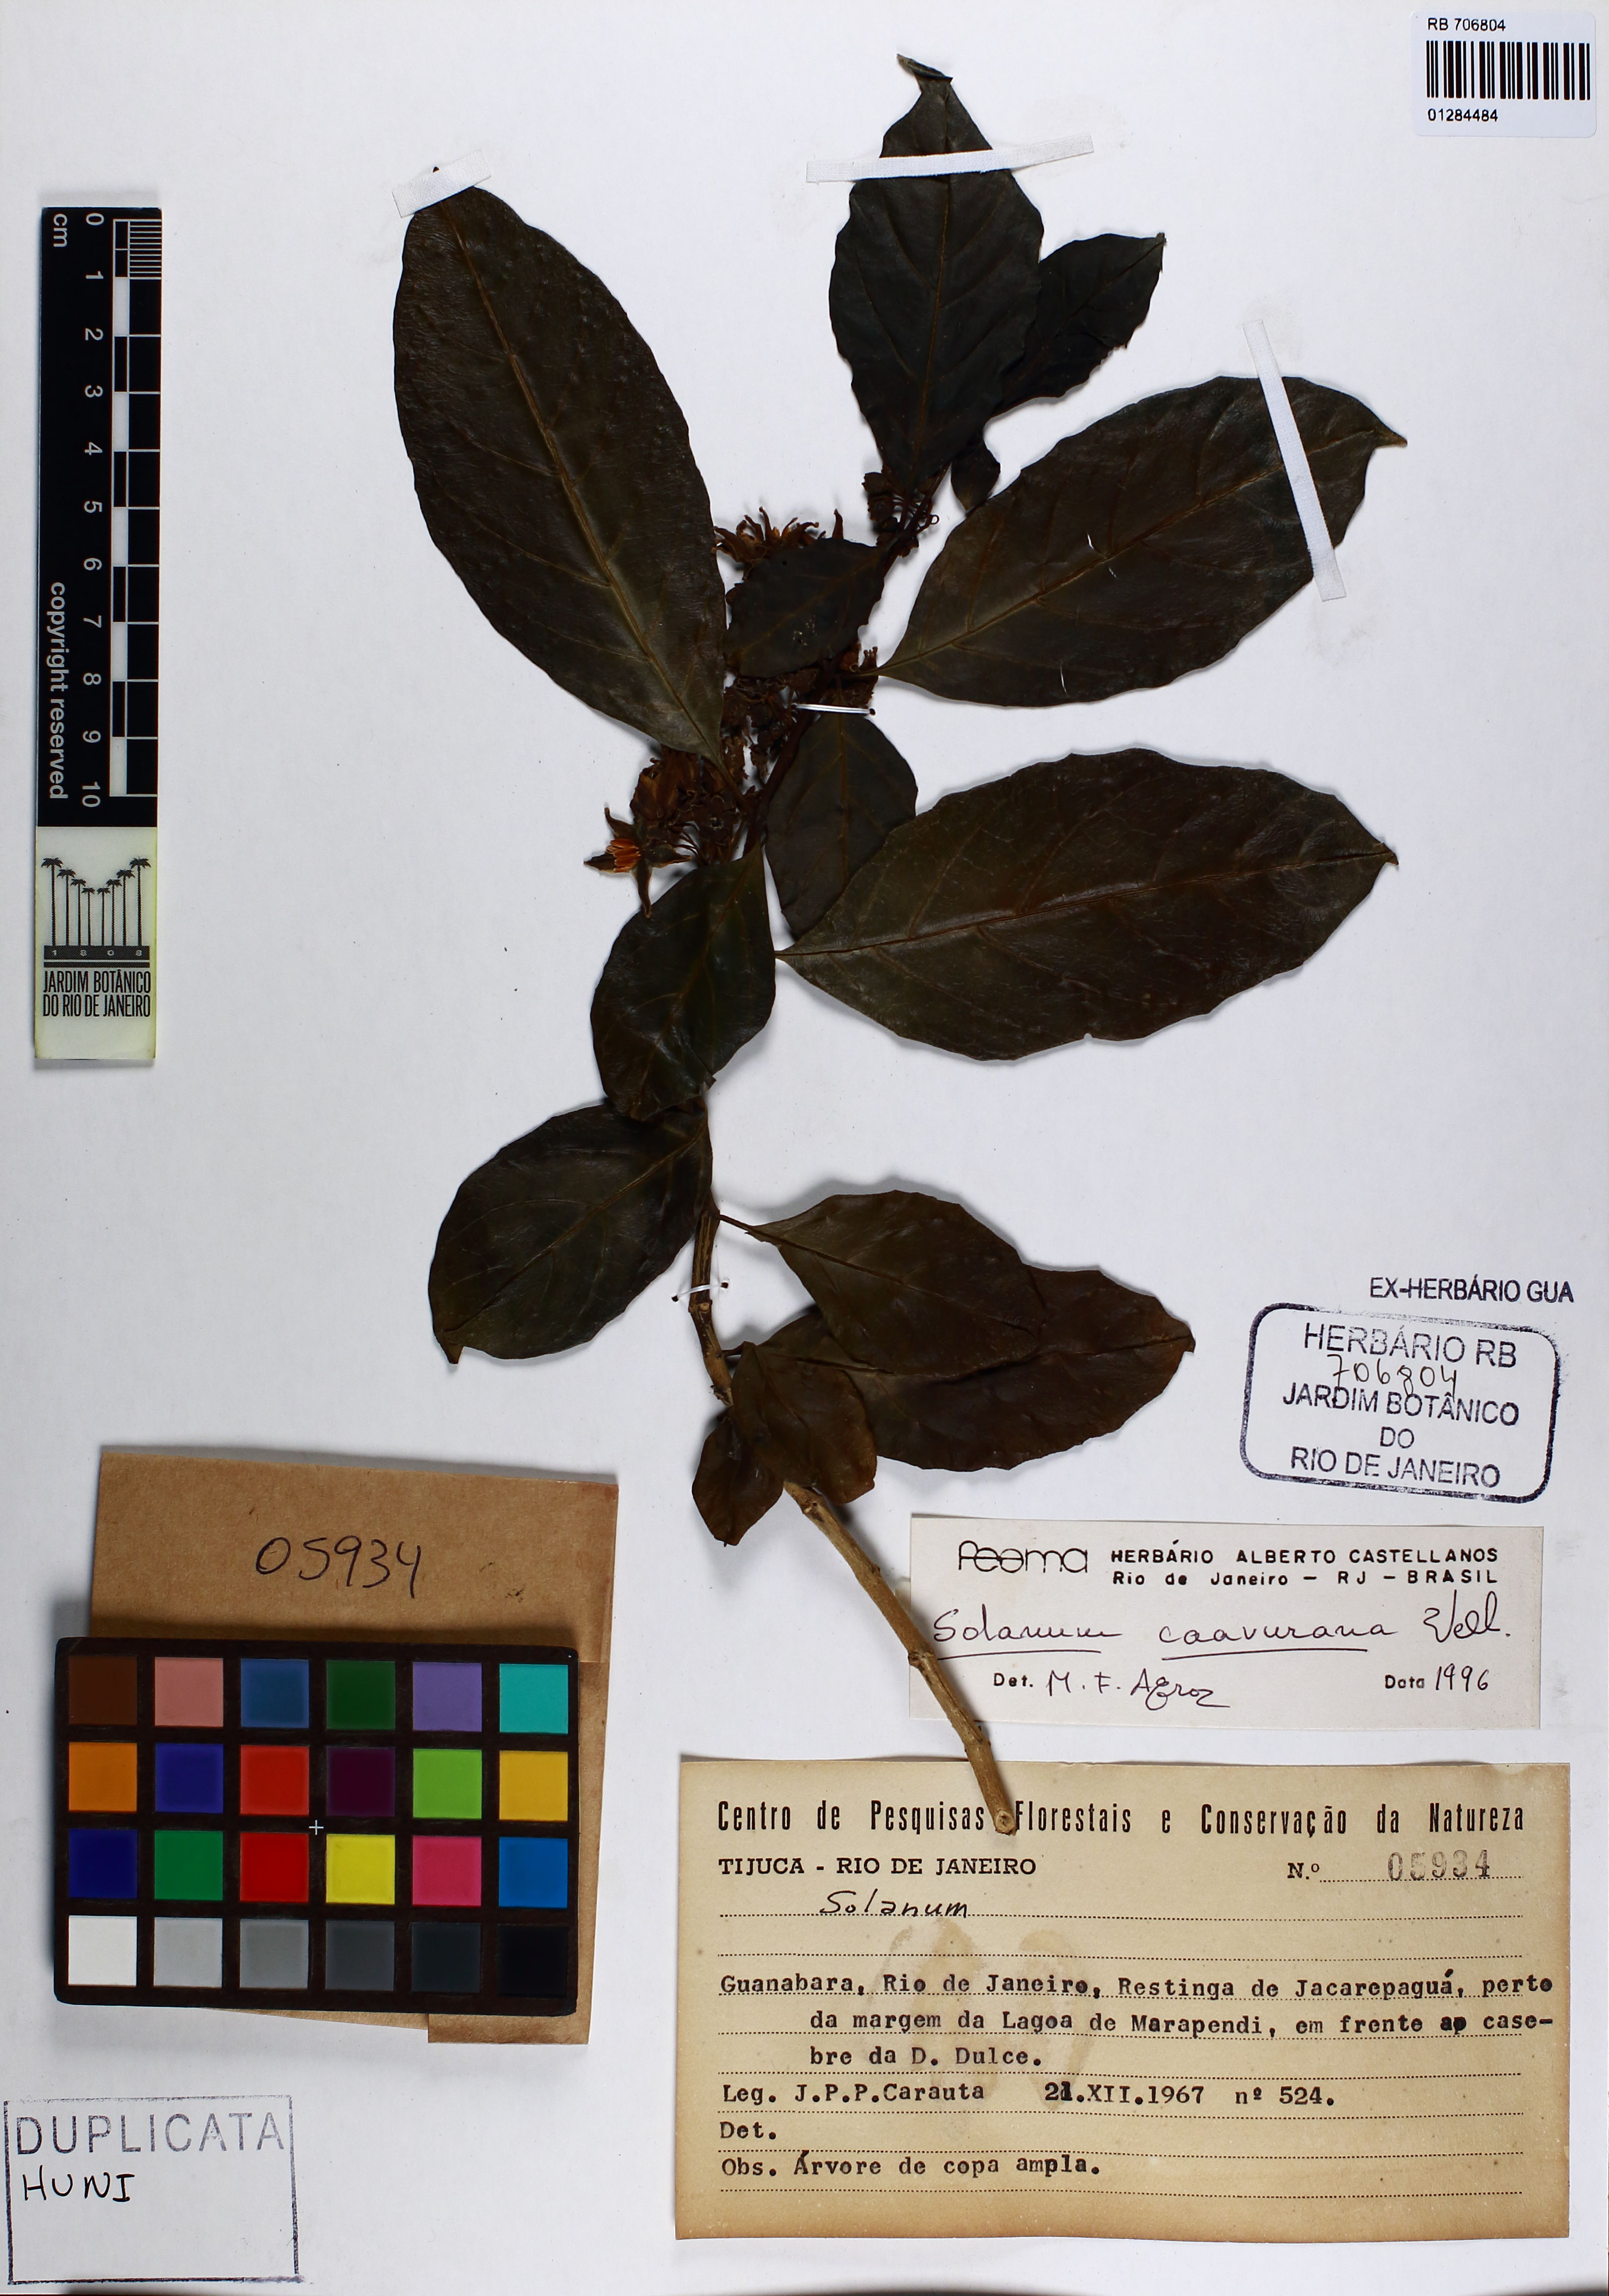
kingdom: Plantae
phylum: Tracheophyta
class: Magnoliopsida
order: Solanales
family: Solanaceae
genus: Solanum
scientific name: Solanum caavurana
